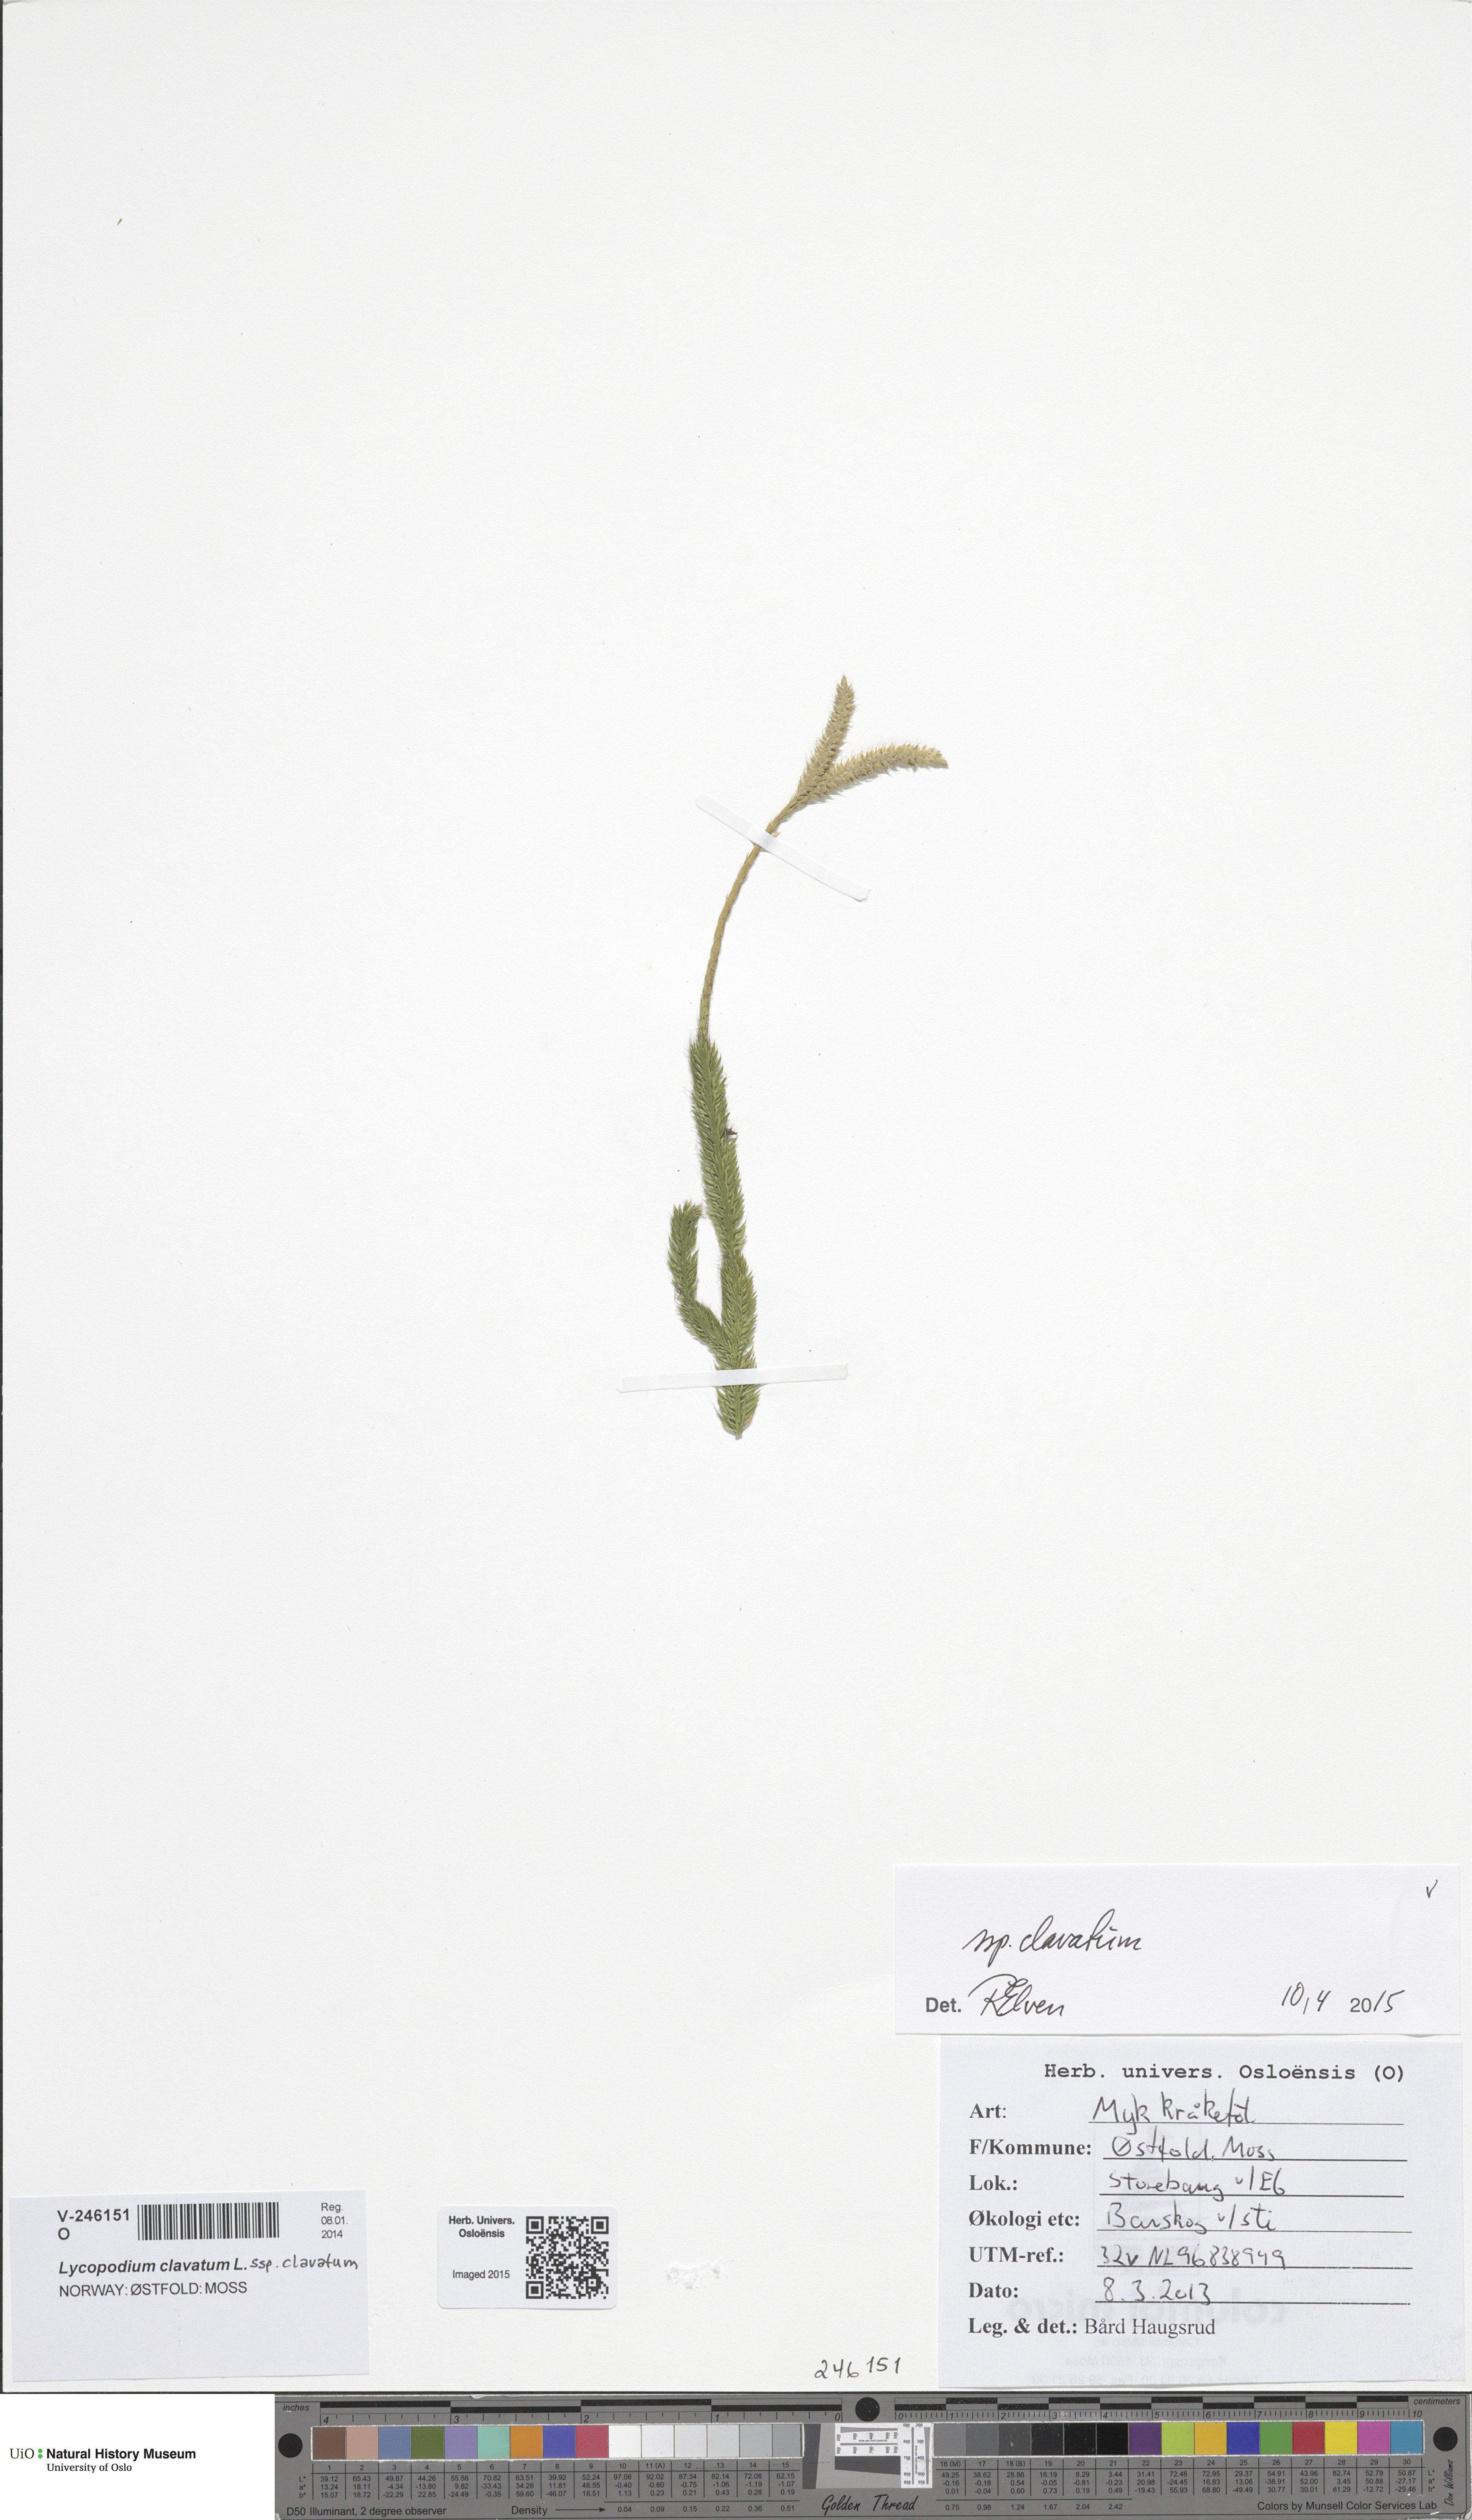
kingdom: Plantae
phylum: Tracheophyta
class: Lycopodiopsida
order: Lycopodiales
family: Lycopodiaceae
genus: Lycopodium
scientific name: Lycopodium clavatum
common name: Stag's-horn clubmoss
